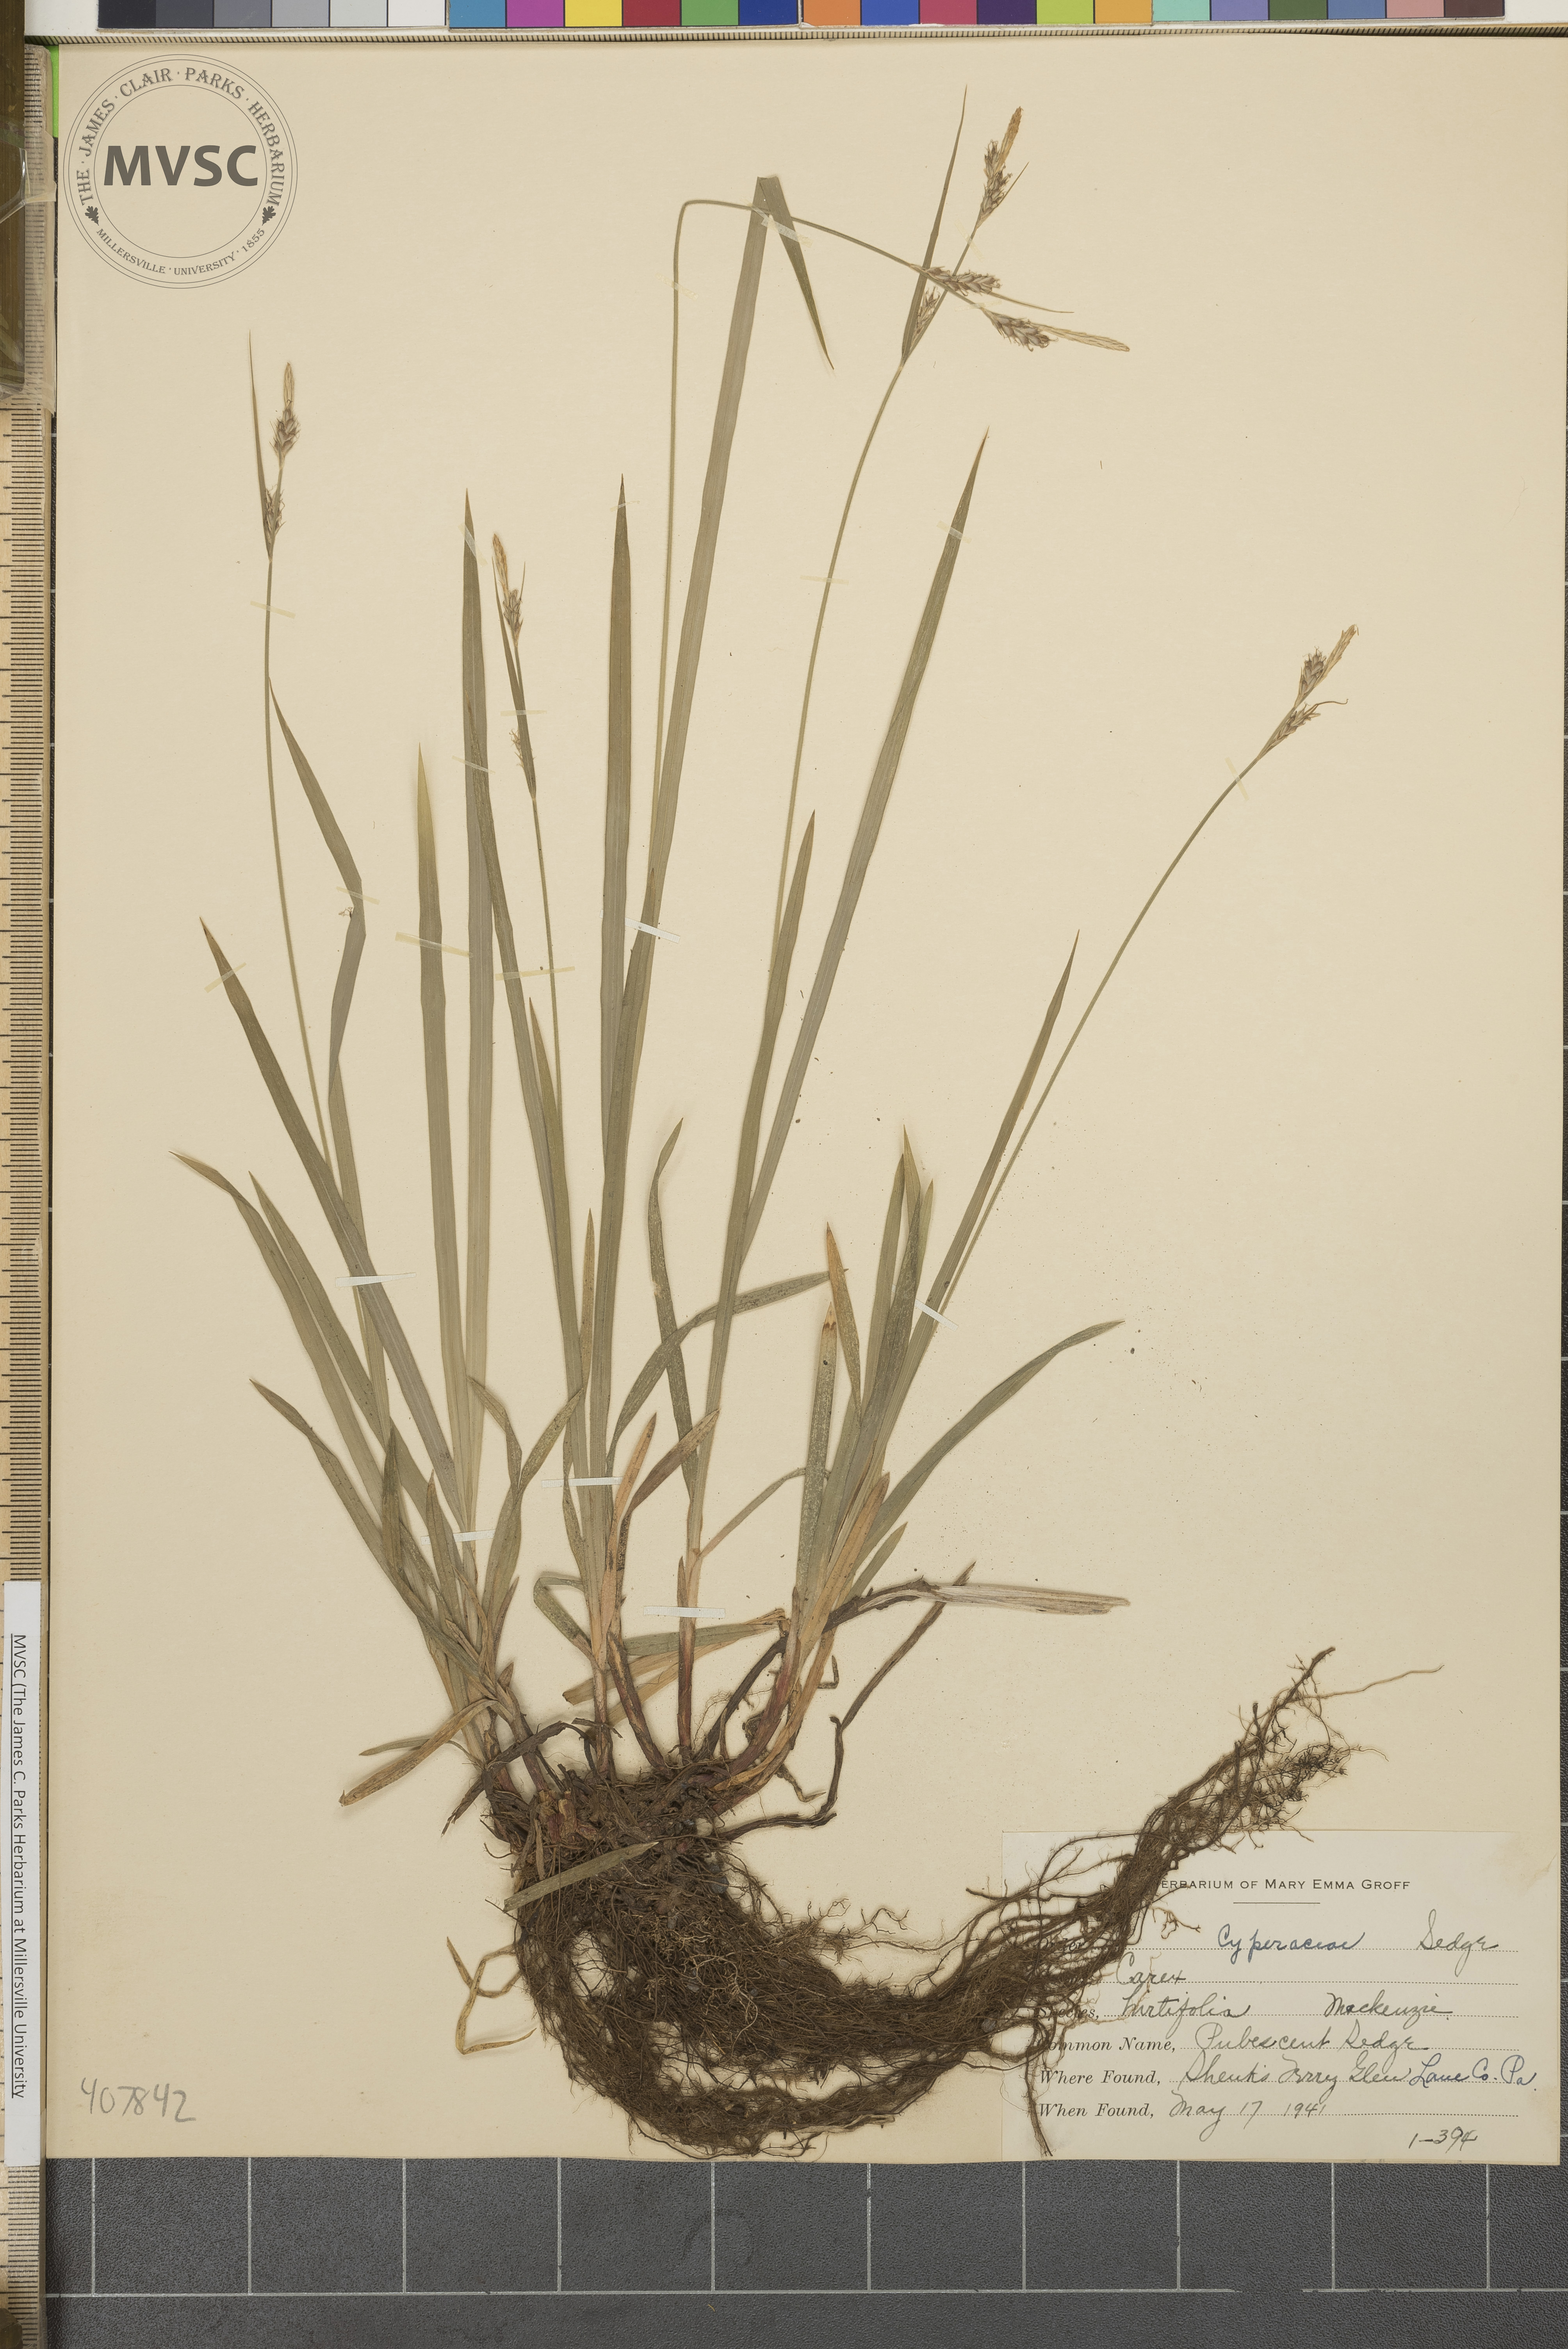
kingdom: Plantae
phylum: Tracheophyta
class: Liliopsida
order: Poales
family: Cyperaceae
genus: Carex
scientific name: Carex hirtifolia
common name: Pubescent Sedge
